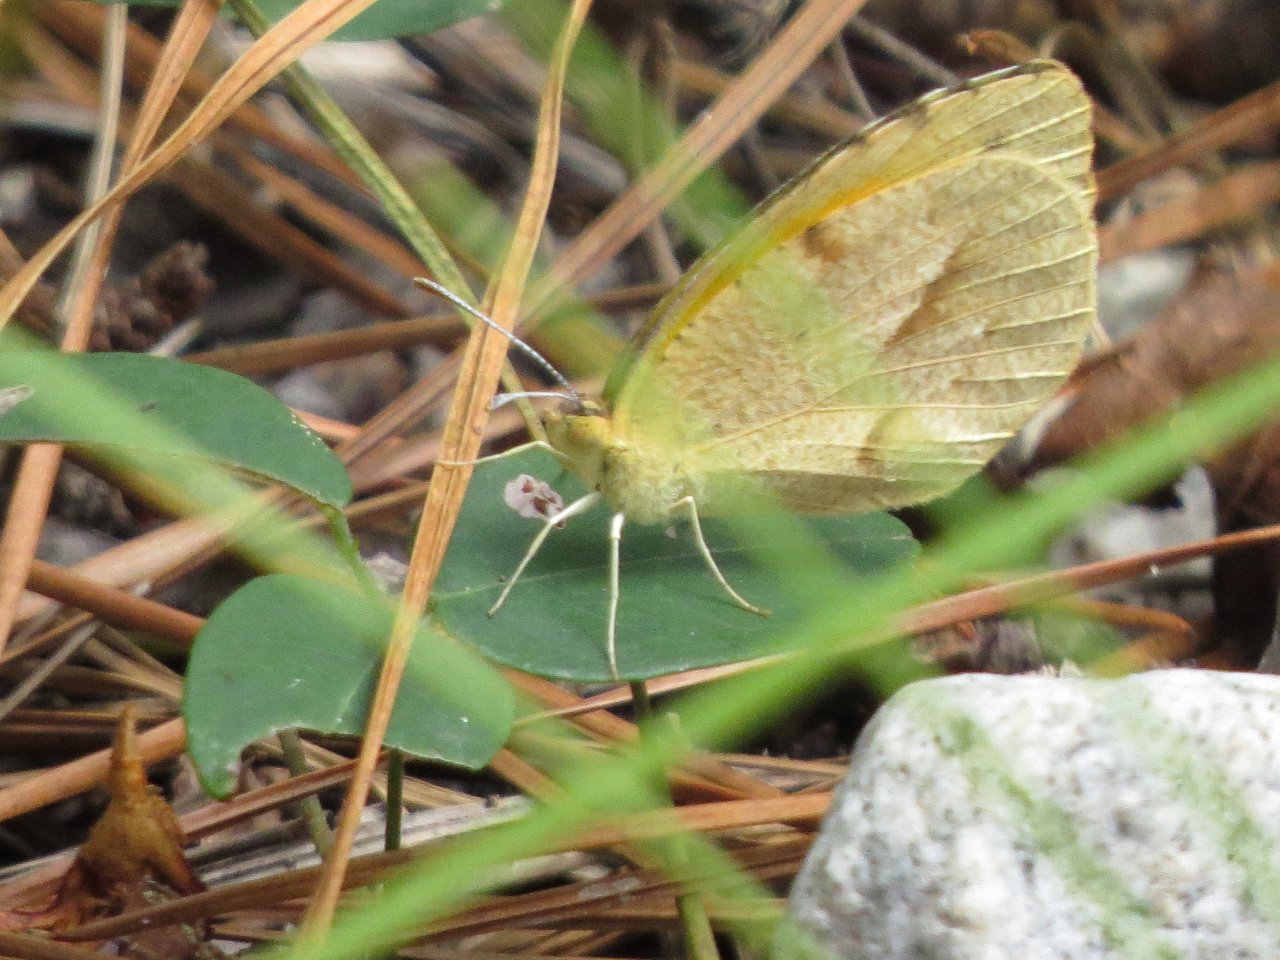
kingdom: Animalia
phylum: Arthropoda
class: Insecta
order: Lepidoptera
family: Pieridae
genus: Abaeis
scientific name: Abaeis nicippe
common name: Sleepy Orange
